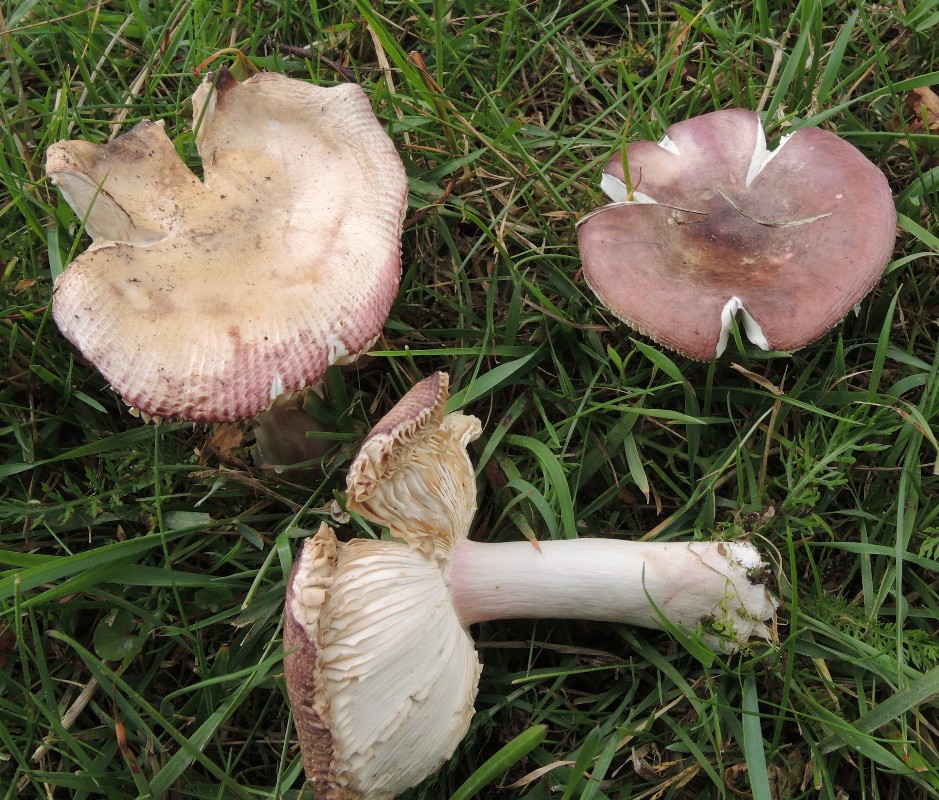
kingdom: Fungi
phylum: Basidiomycota
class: Agaricomycetes
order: Russulales
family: Russulaceae
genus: Russula
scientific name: Russula depallens
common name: falmende skørhat
